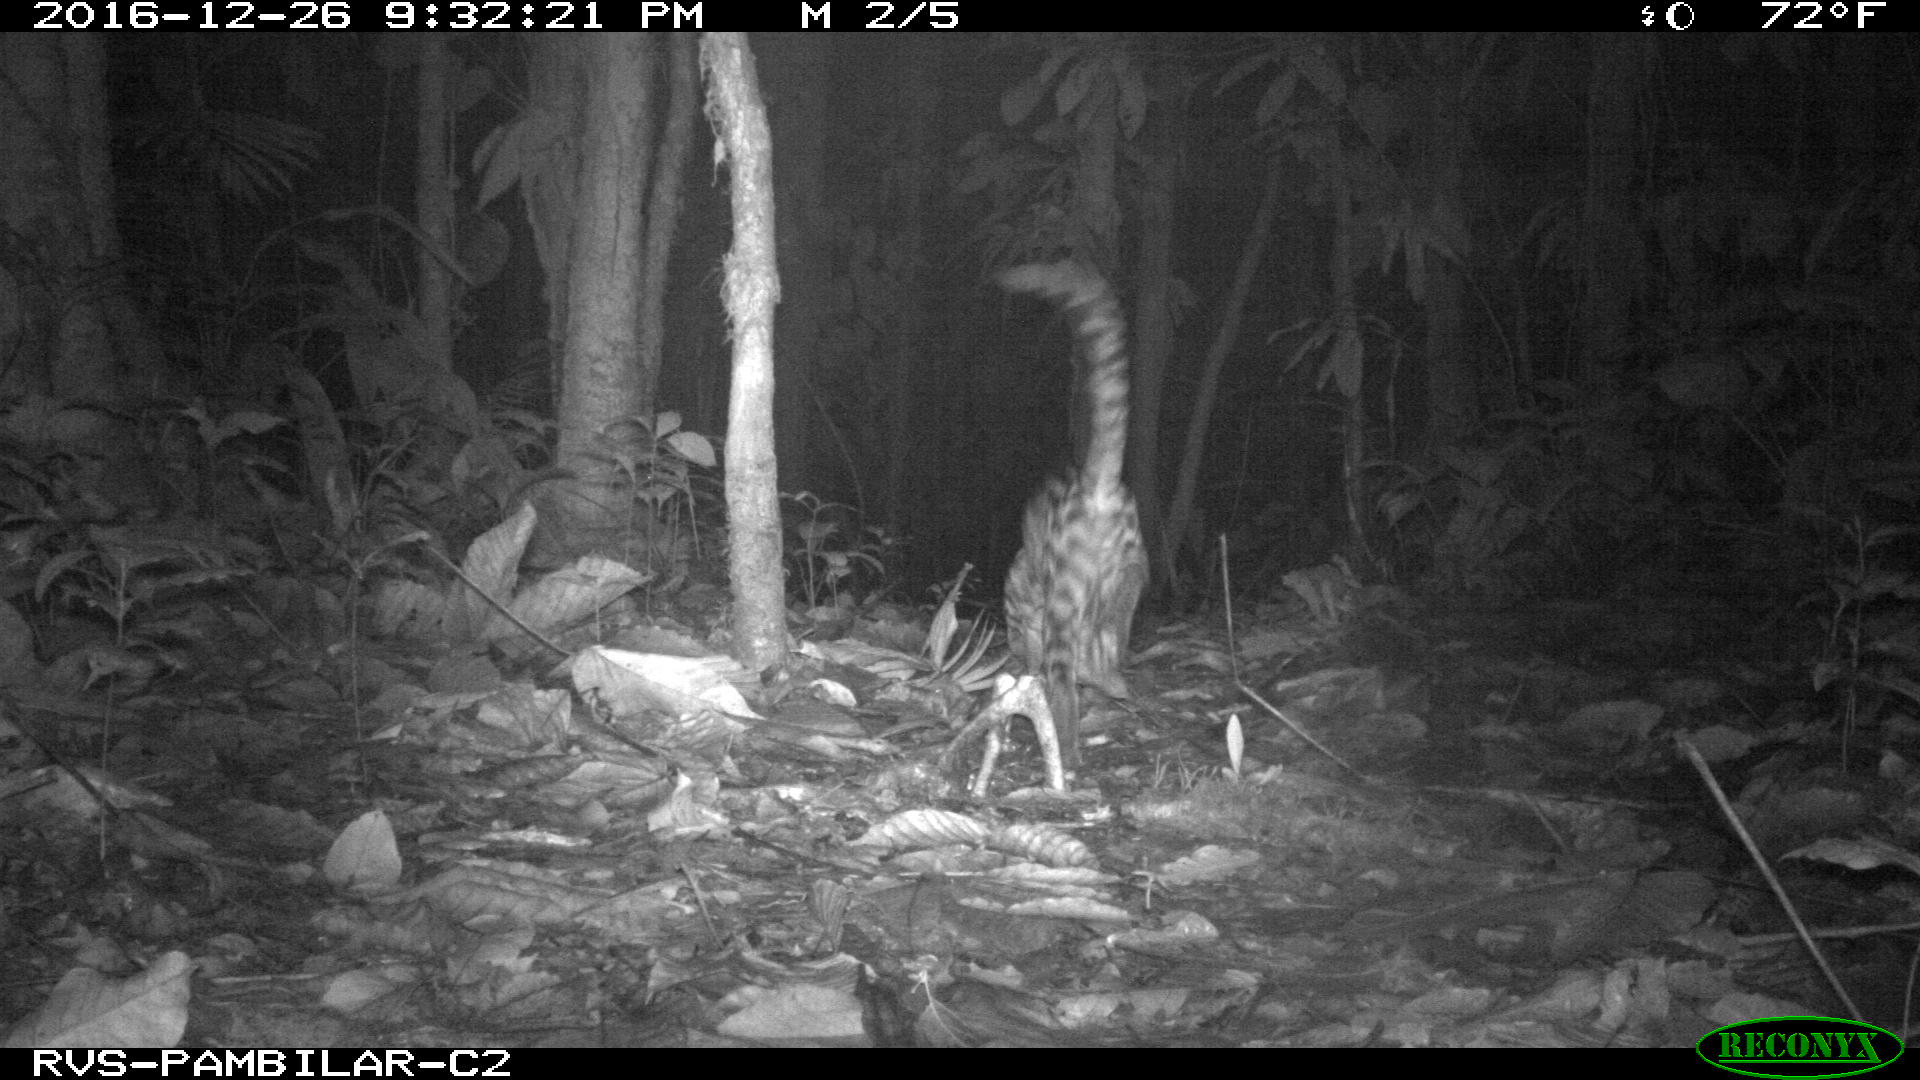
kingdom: Animalia
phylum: Chordata
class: Mammalia
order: Carnivora
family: Felidae
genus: Leopardus
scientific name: Leopardus pardalis
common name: Ocelot
